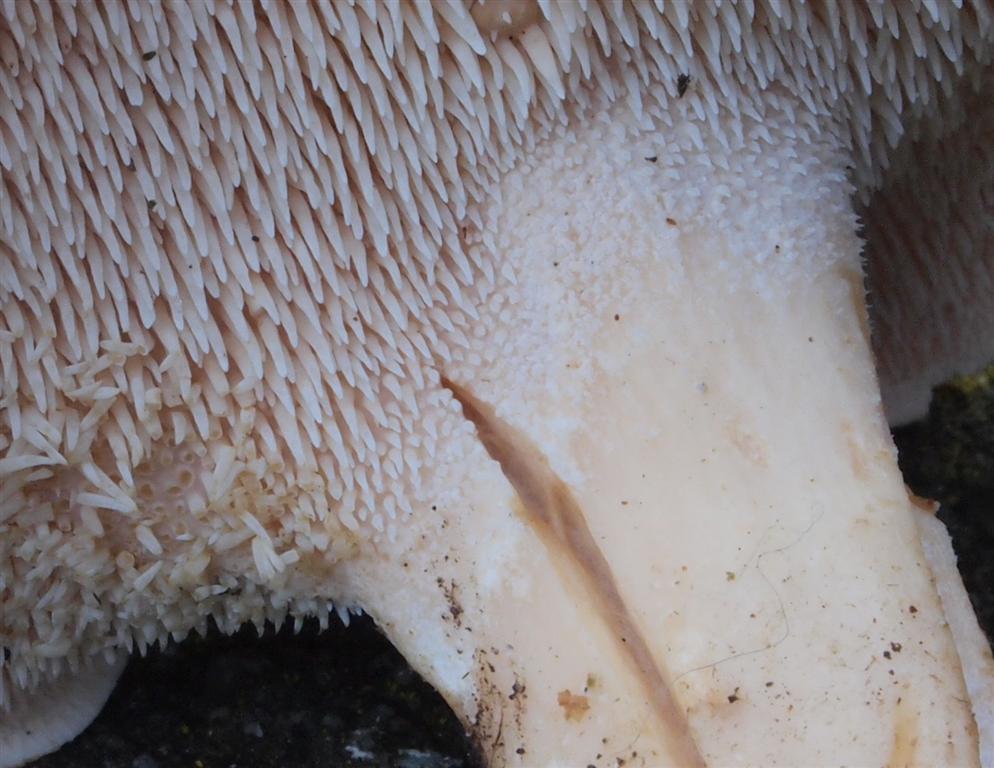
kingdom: Fungi
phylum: Basidiomycota
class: Agaricomycetes
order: Cantharellales
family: Hydnaceae
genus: Hydnum
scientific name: Hydnum rufescens
